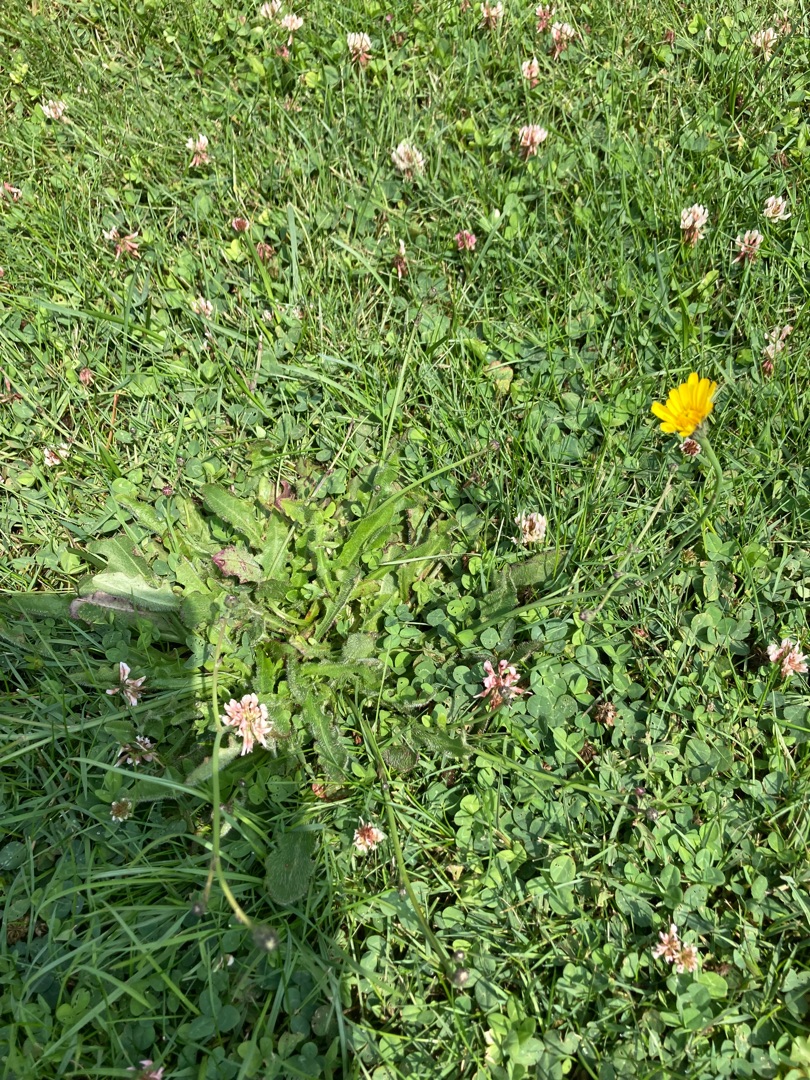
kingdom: Plantae
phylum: Tracheophyta
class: Magnoliopsida
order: Asterales
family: Asteraceae
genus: Hypochaeris
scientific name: Hypochaeris radicata
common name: Almindelig kongepen
